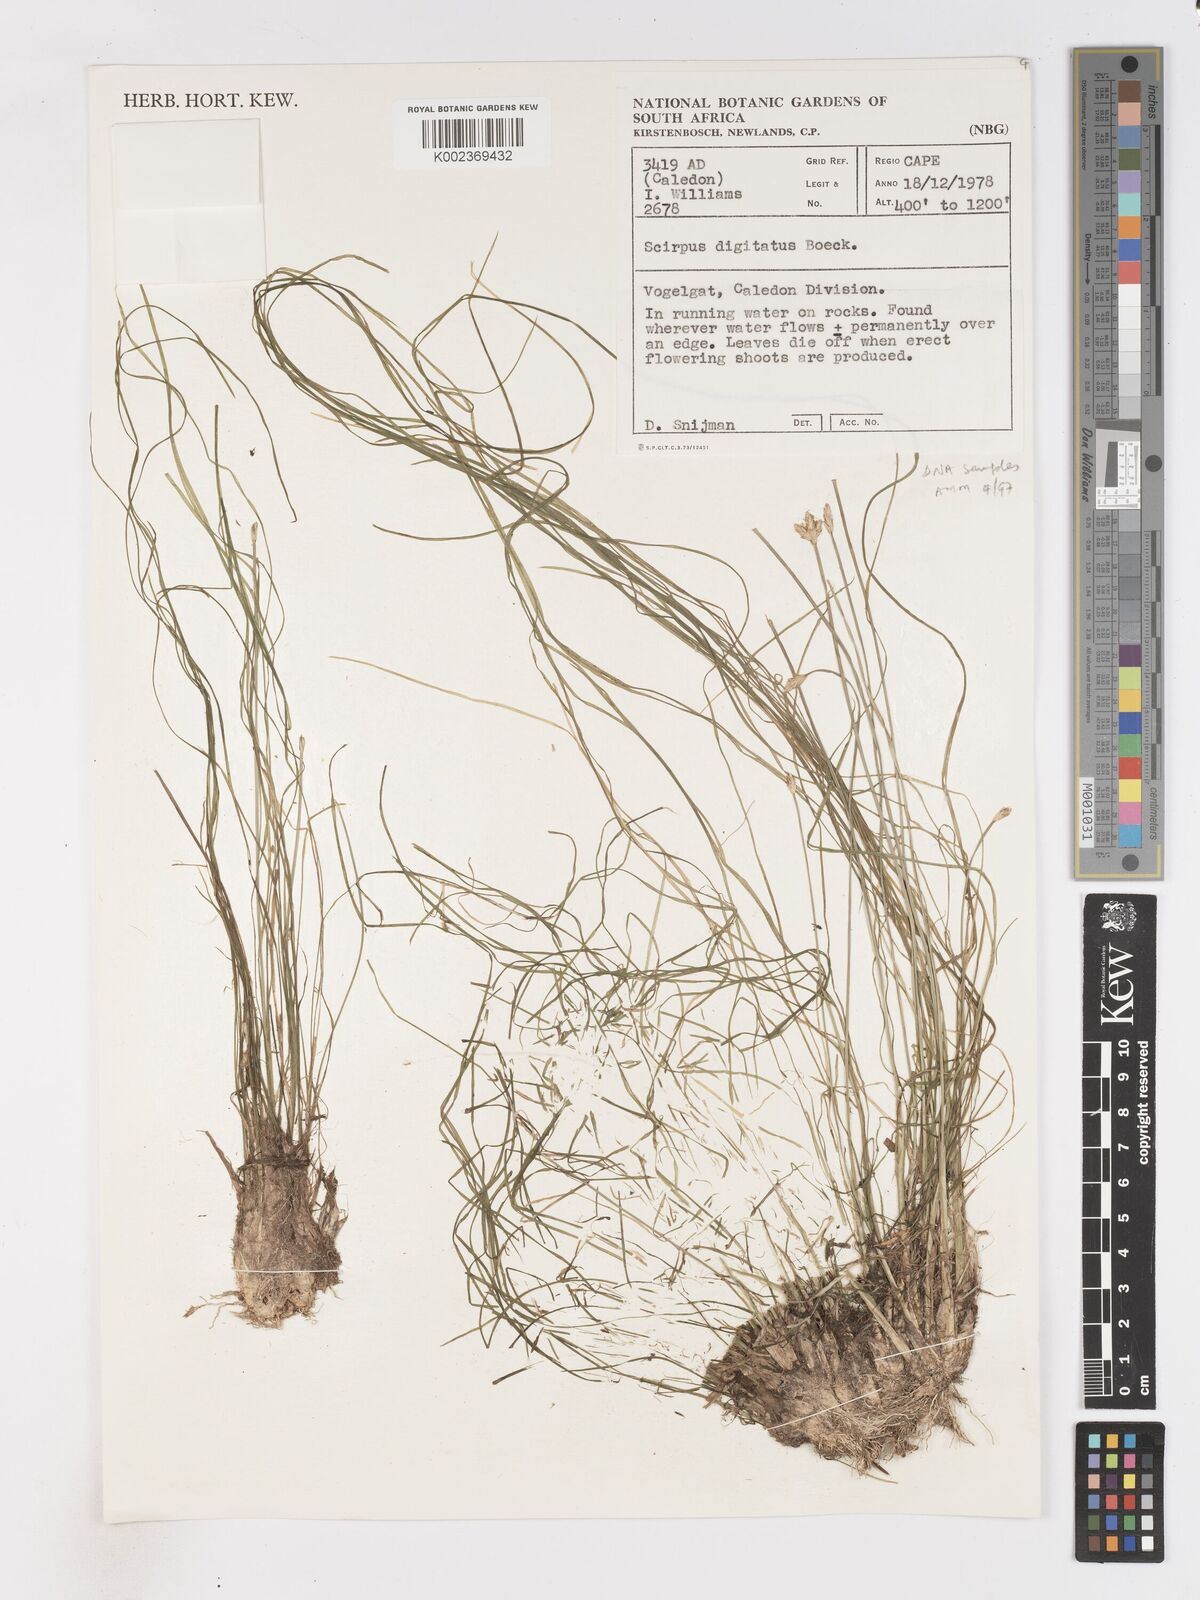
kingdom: Plantae
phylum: Tracheophyta
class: Liliopsida
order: Poales
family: Cyperaceae
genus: Isolepis
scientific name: Isolepis digitata
